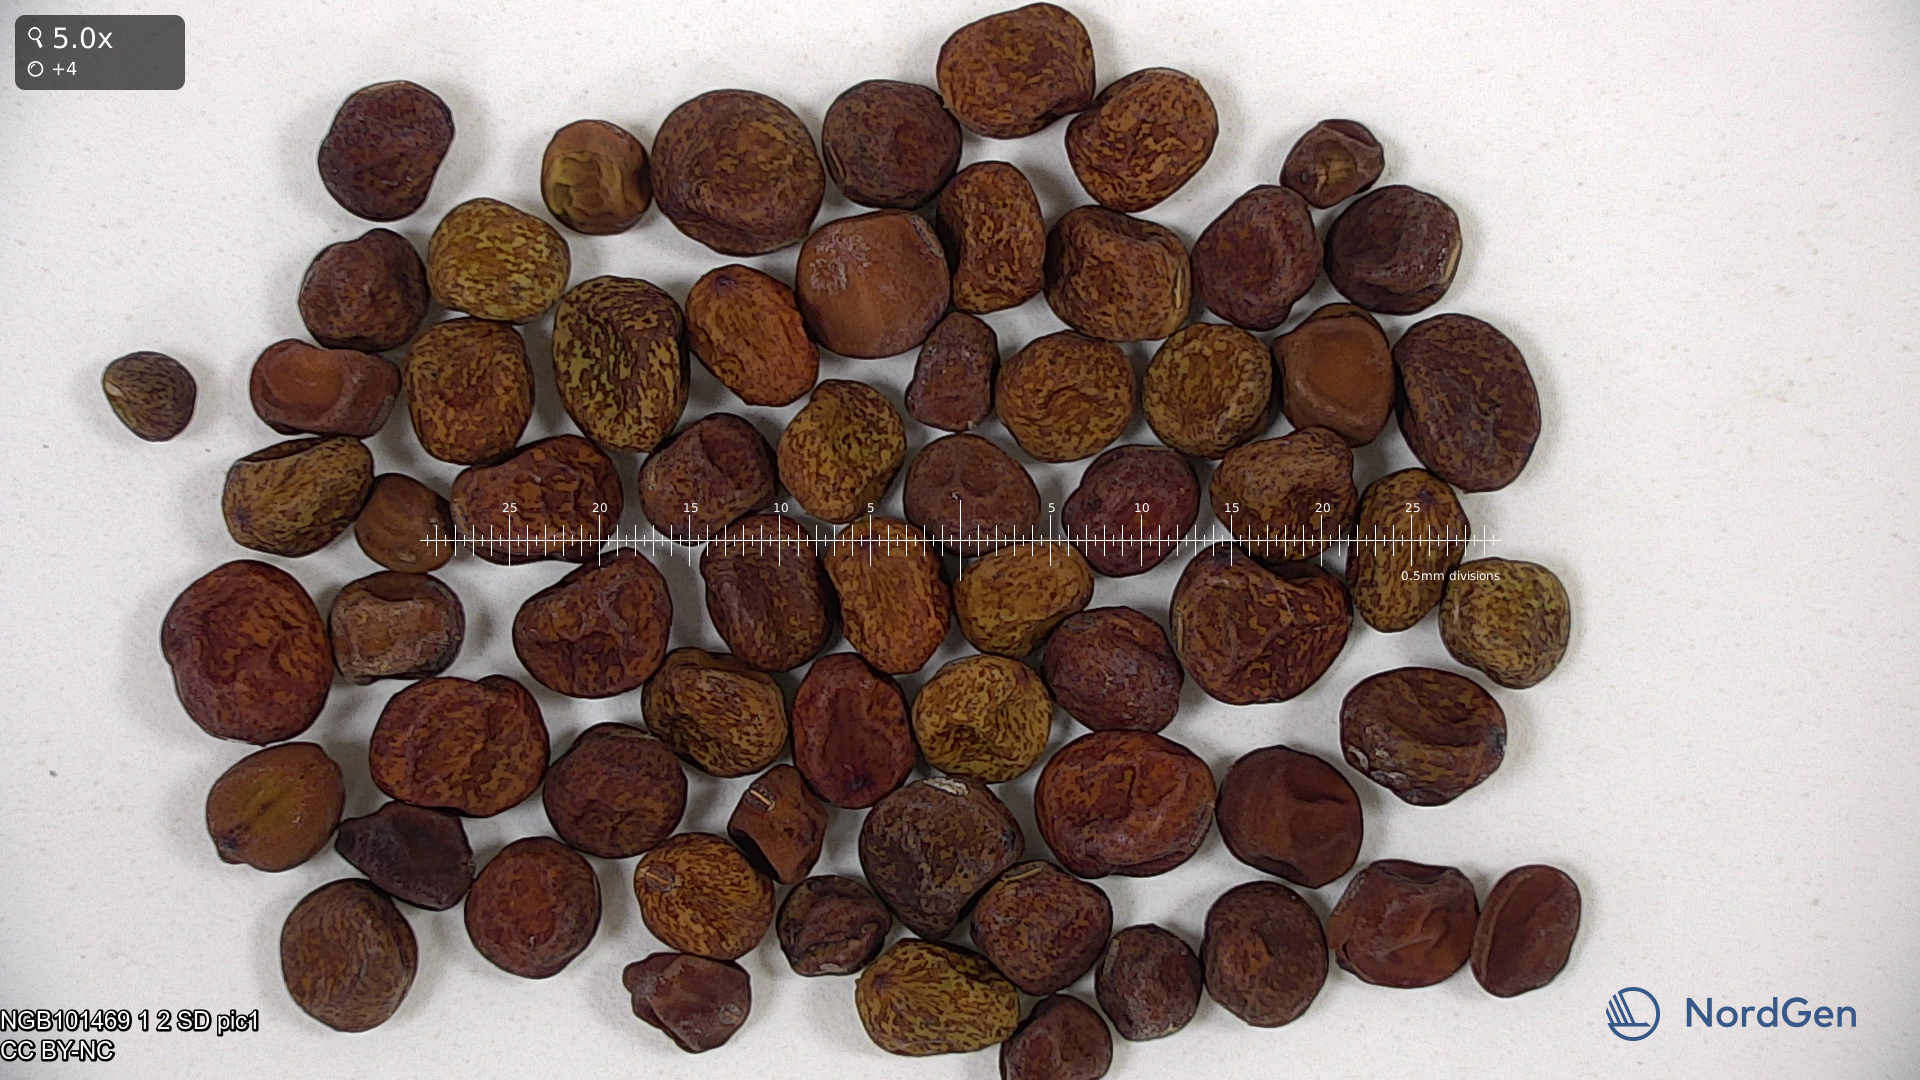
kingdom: Plantae
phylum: Tracheophyta
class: Magnoliopsida
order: Fabales
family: Fabaceae
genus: Lathyrus
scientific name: Lathyrus oleraceus
